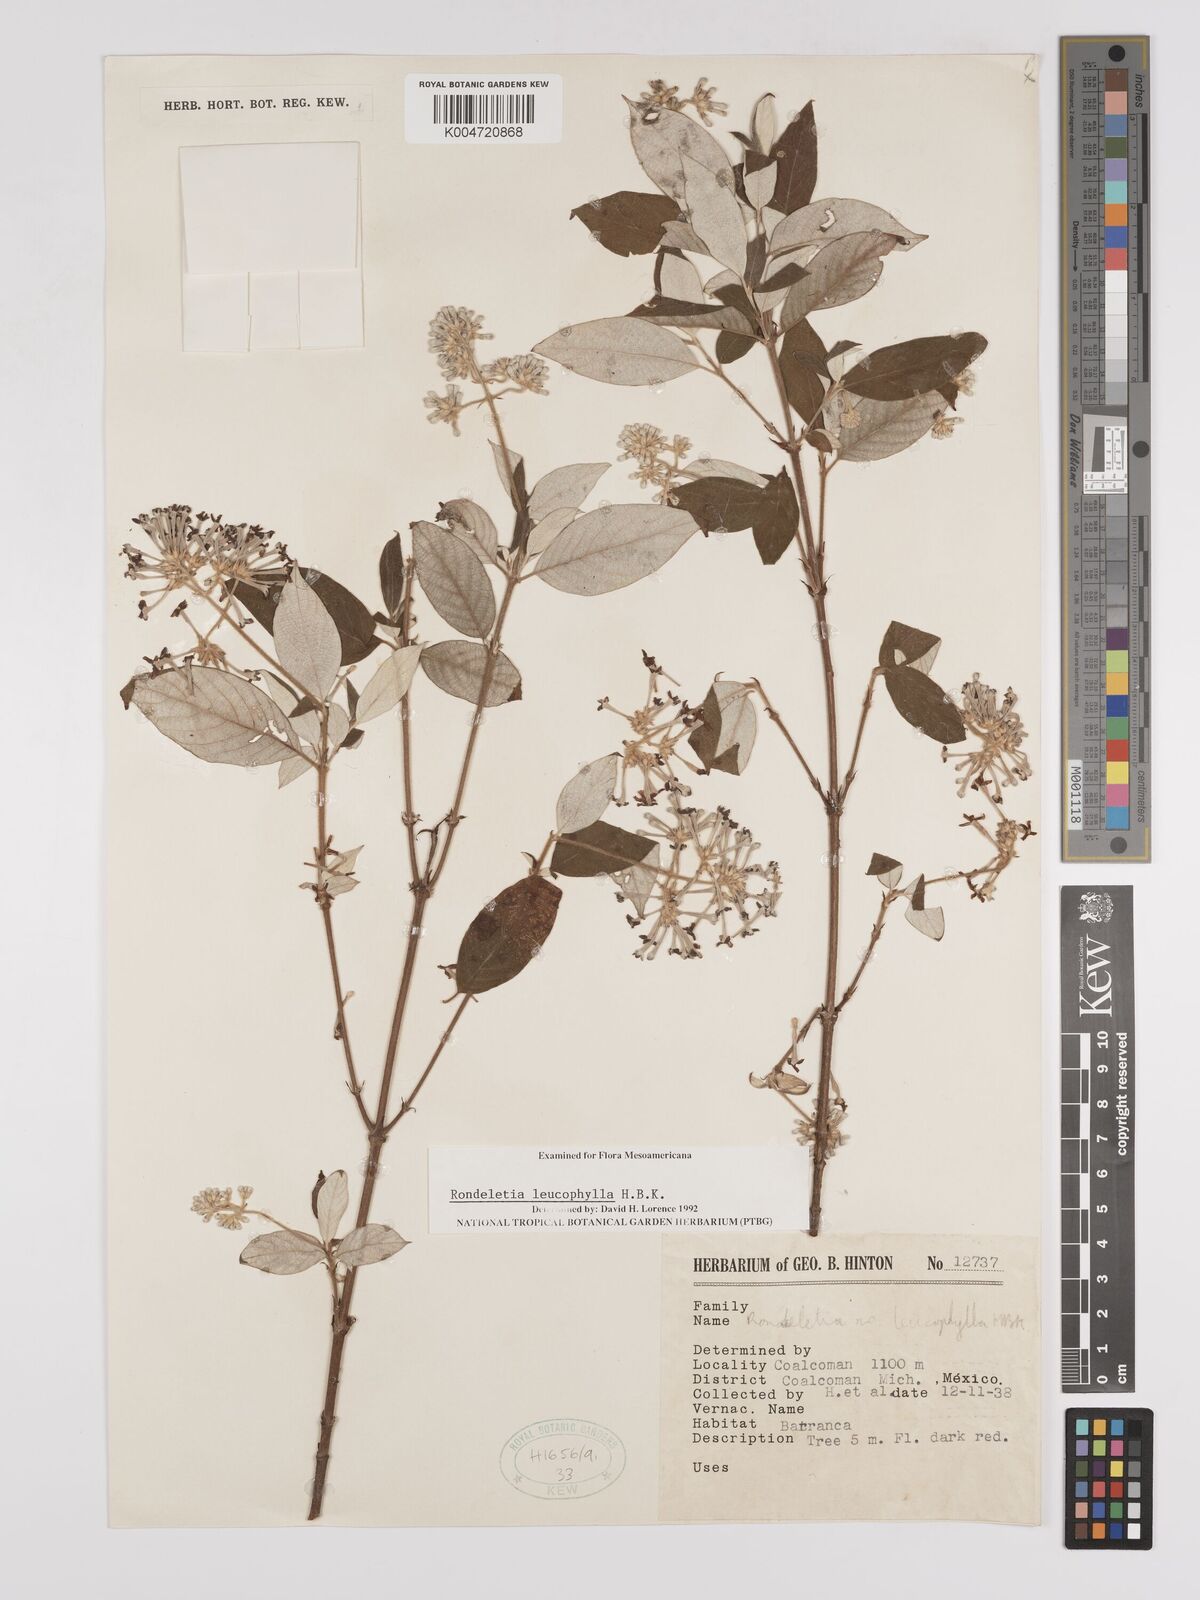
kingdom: Plantae
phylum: Tracheophyta
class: Magnoliopsida
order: Gentianales
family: Rubiaceae
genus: Arachnothryx
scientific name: Arachnothryx leucophylla
